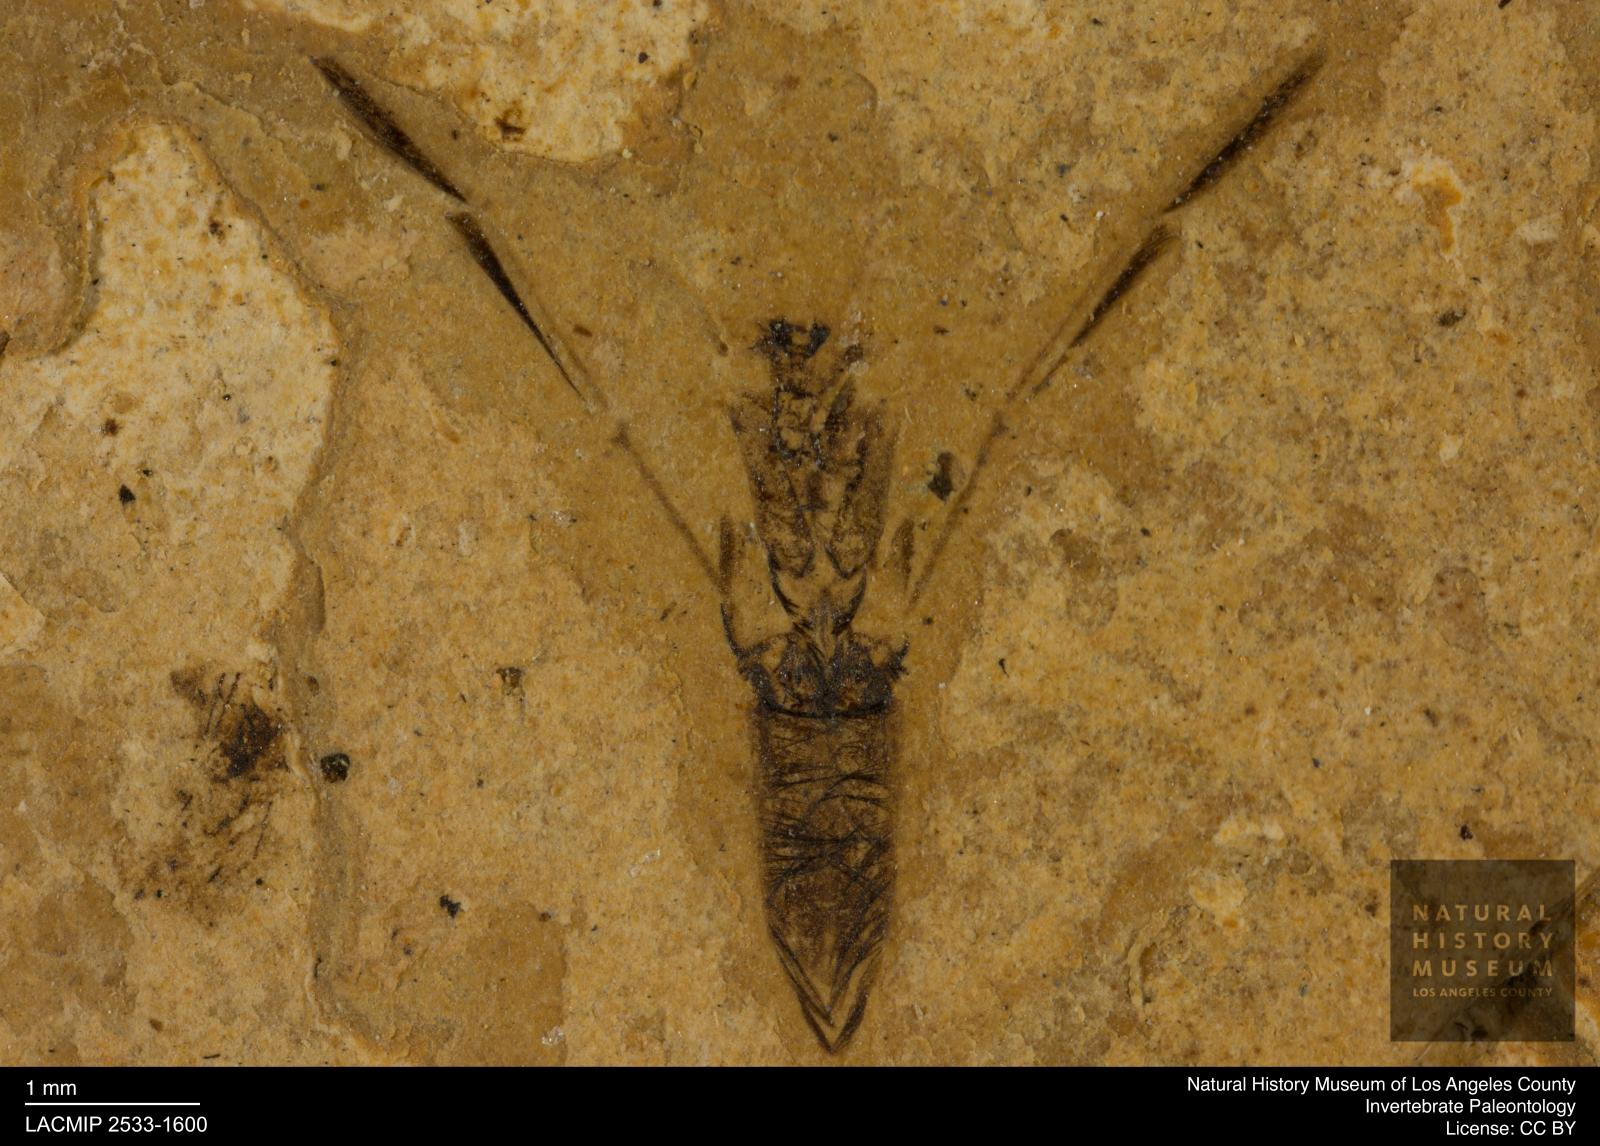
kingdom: Animalia
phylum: Arthropoda
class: Insecta
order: Hemiptera
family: Notonectidae
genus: Notonecta
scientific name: Notonecta
